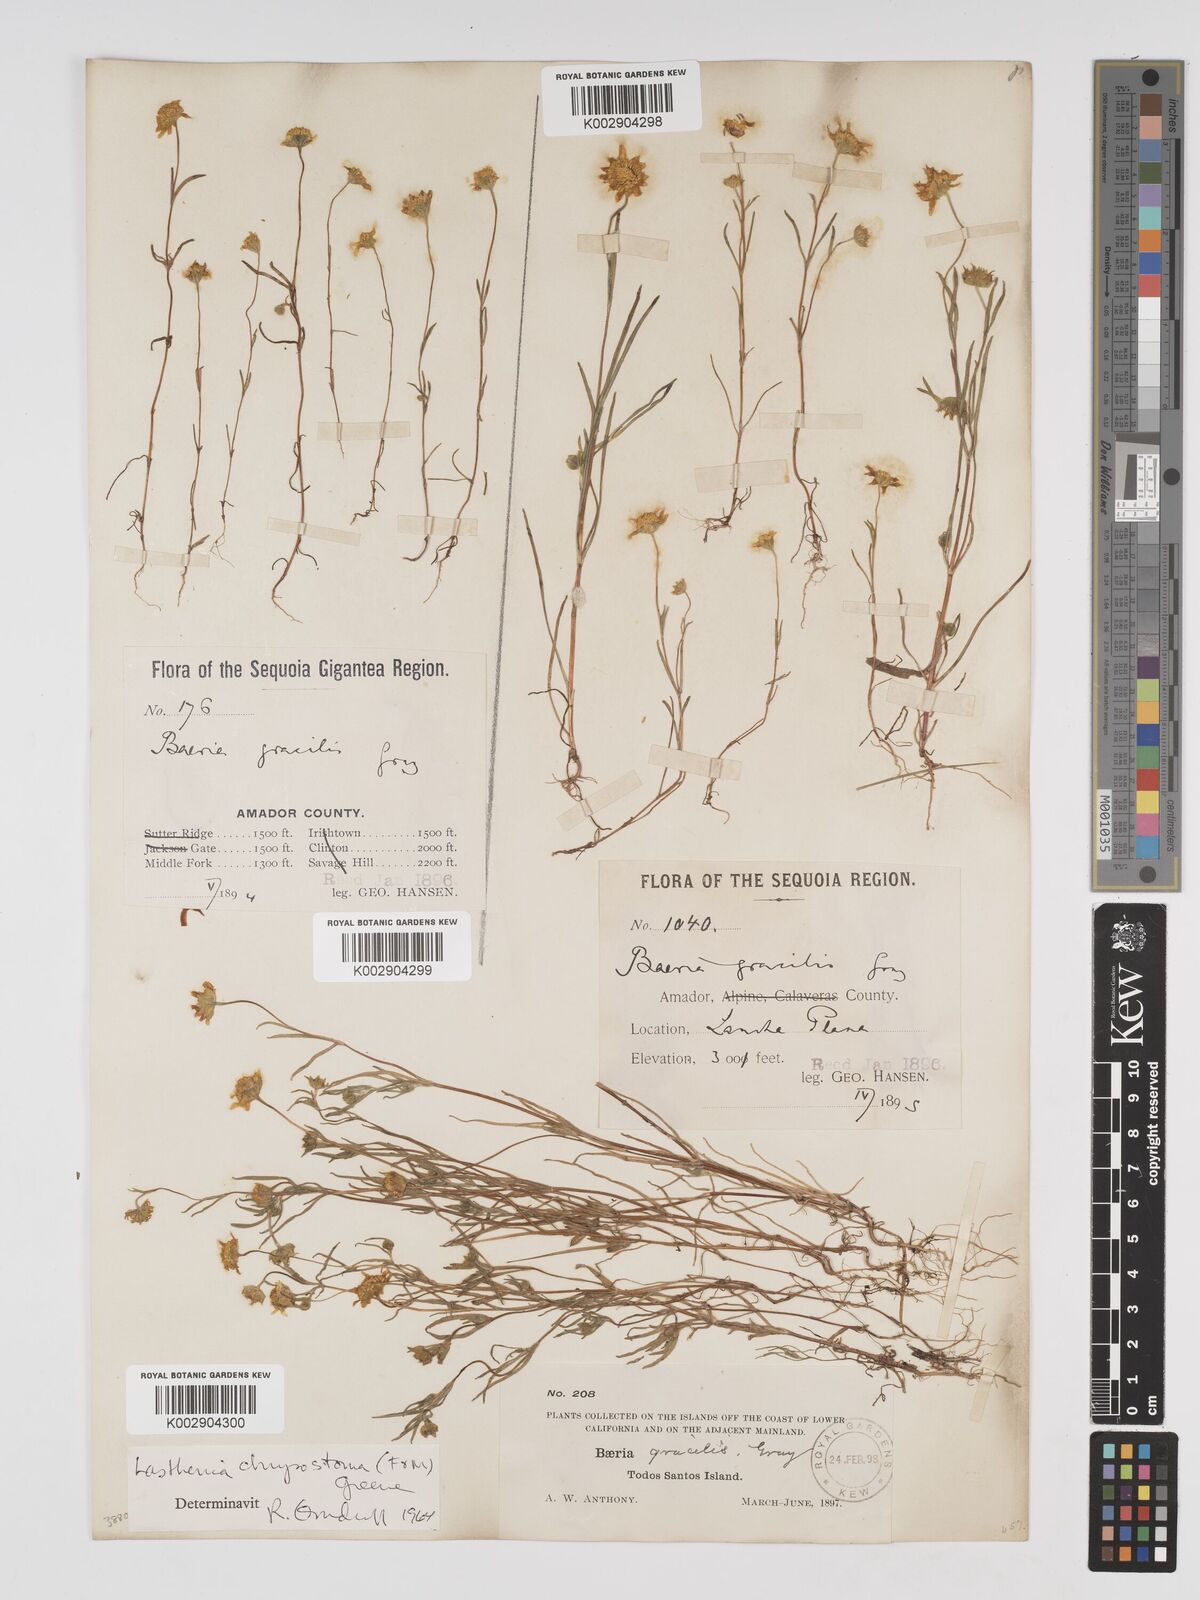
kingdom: Plantae
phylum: Tracheophyta
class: Magnoliopsida
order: Asterales
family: Asteraceae
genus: Lasthenia
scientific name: Lasthenia californica
